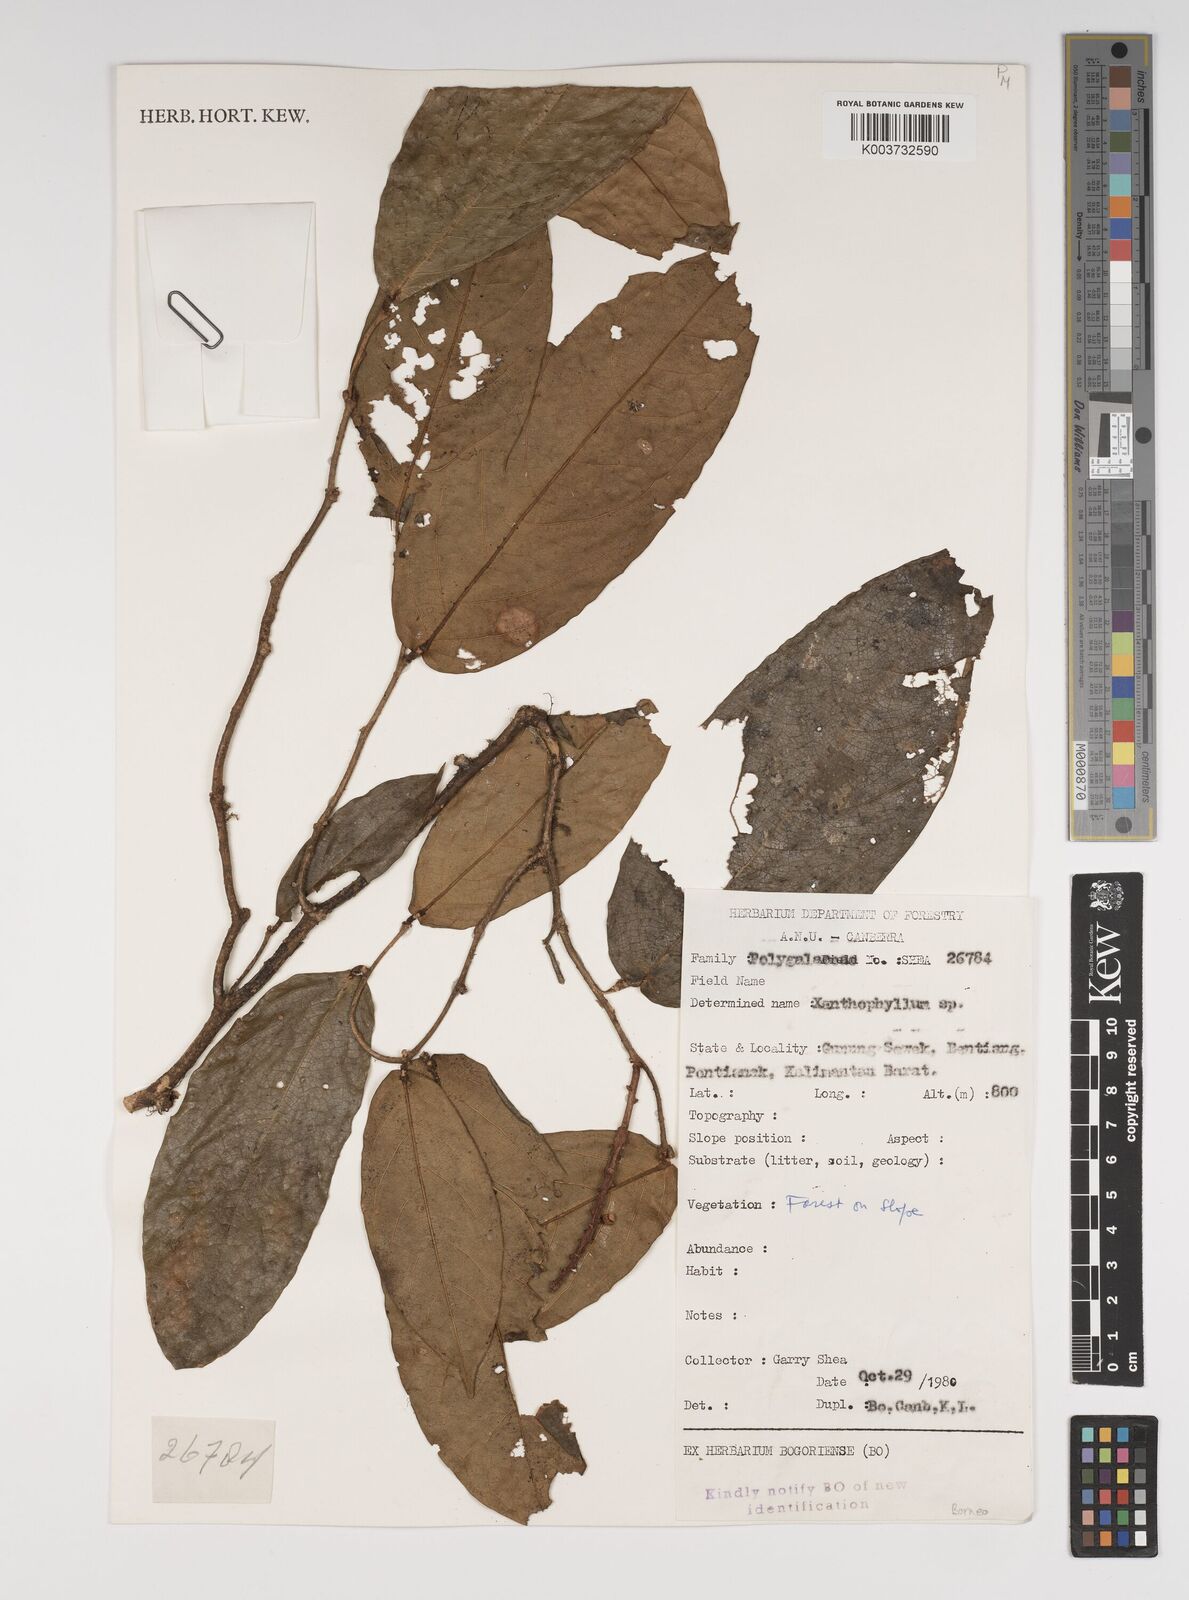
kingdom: Plantae
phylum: Tracheophyta
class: Magnoliopsida
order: Fabales
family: Polygalaceae
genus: Xanthophyllum
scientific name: Xanthophyllum
